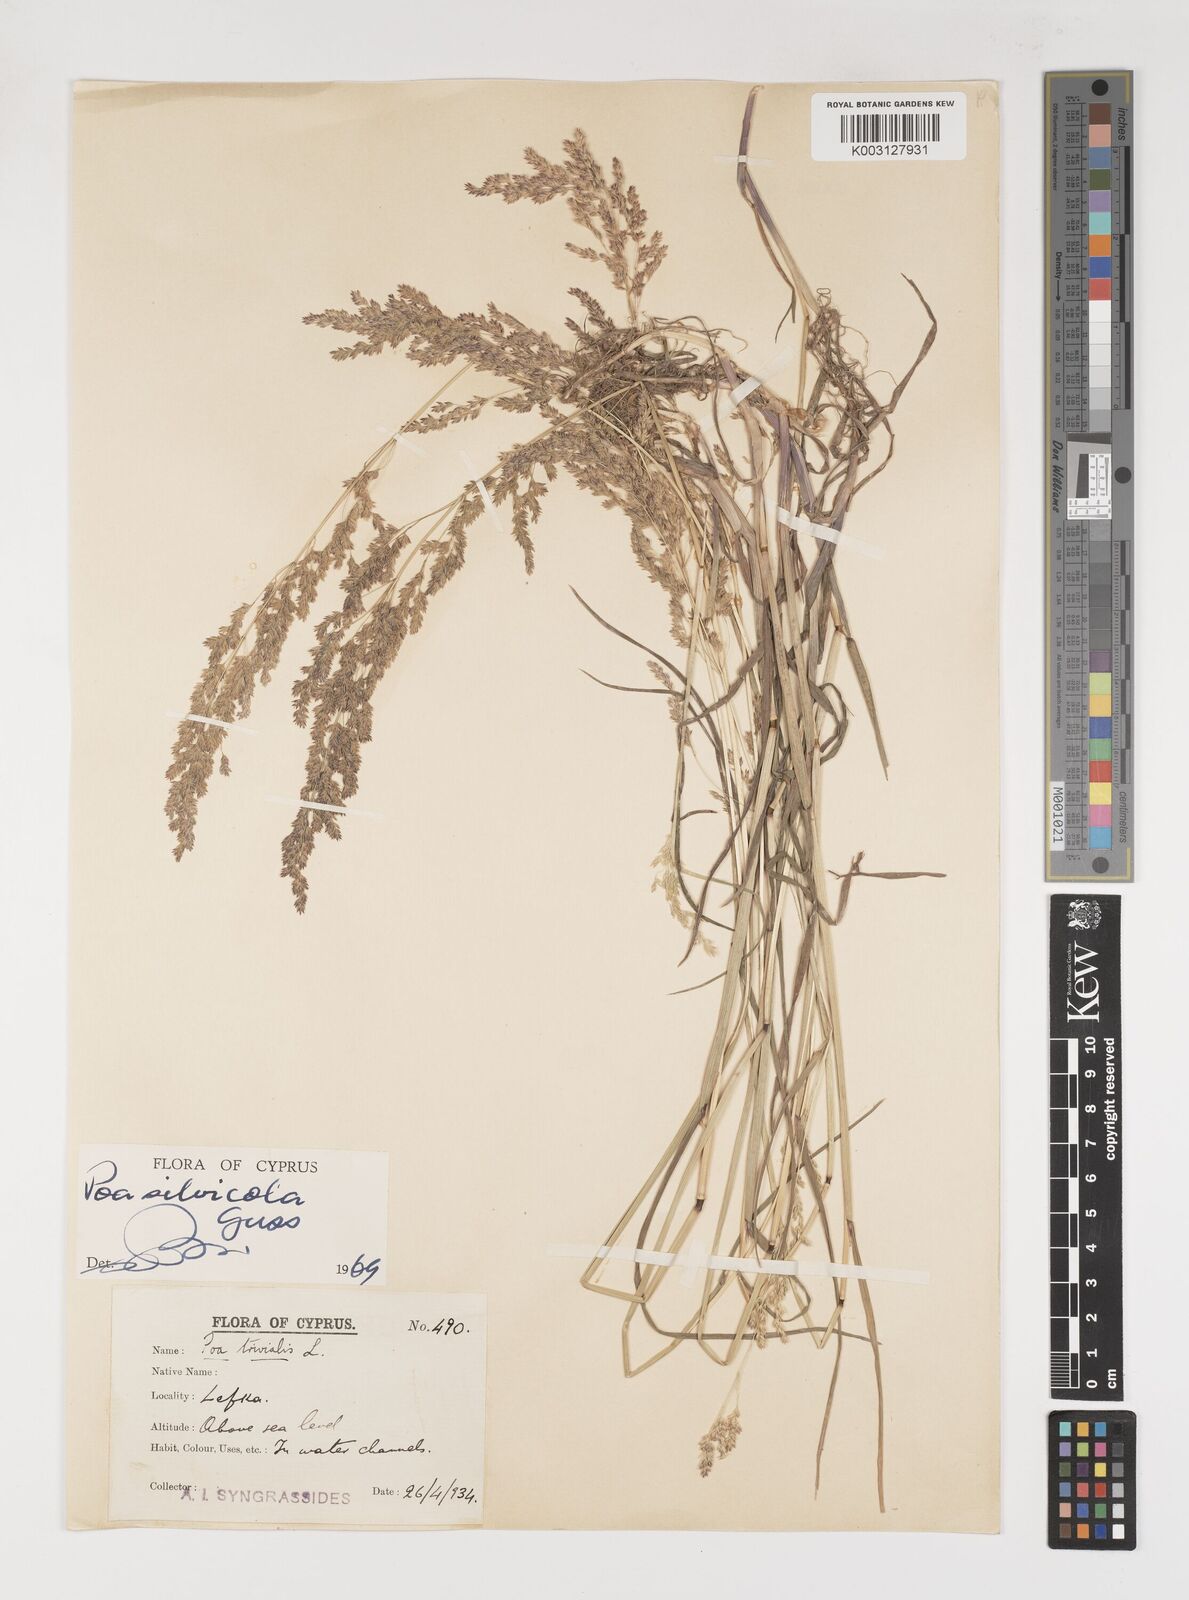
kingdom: Plantae
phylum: Tracheophyta
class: Liliopsida
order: Poales
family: Poaceae
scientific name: Poaceae
